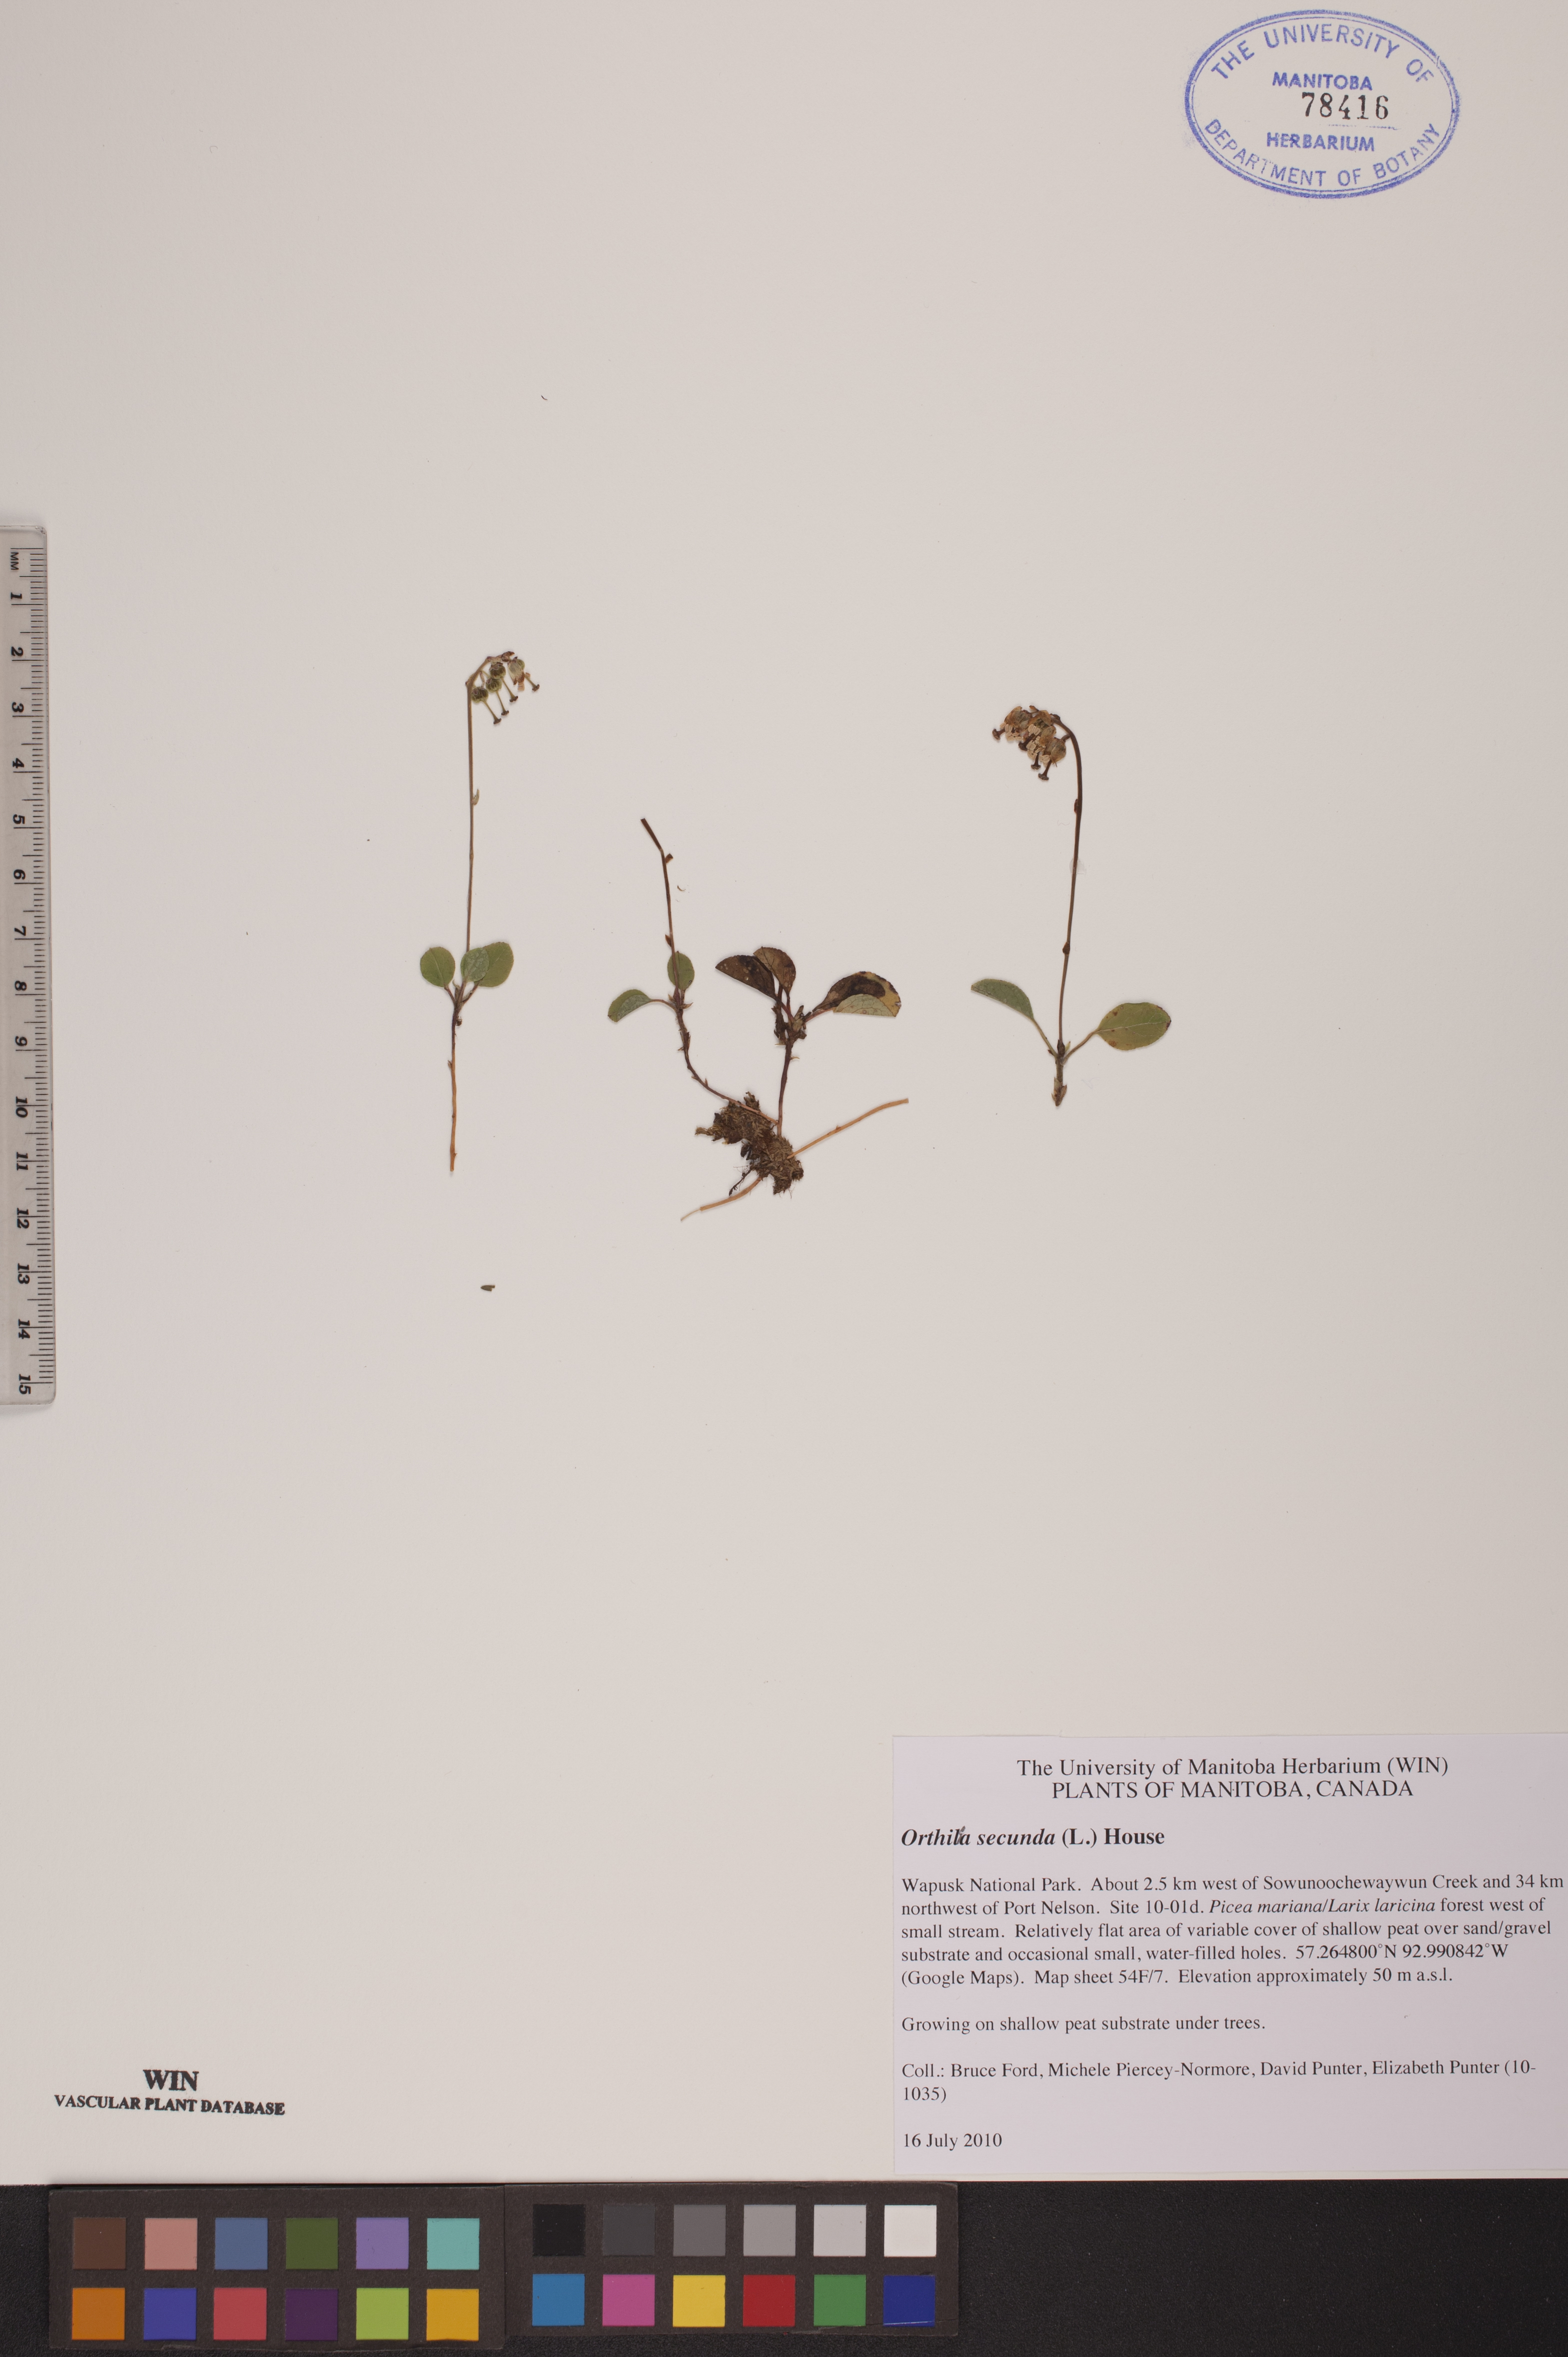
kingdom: Plantae
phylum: Tracheophyta
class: Magnoliopsida
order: Ericales
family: Ericaceae
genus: Orthilia
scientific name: Orthilia secunda
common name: One-sided orthilia
